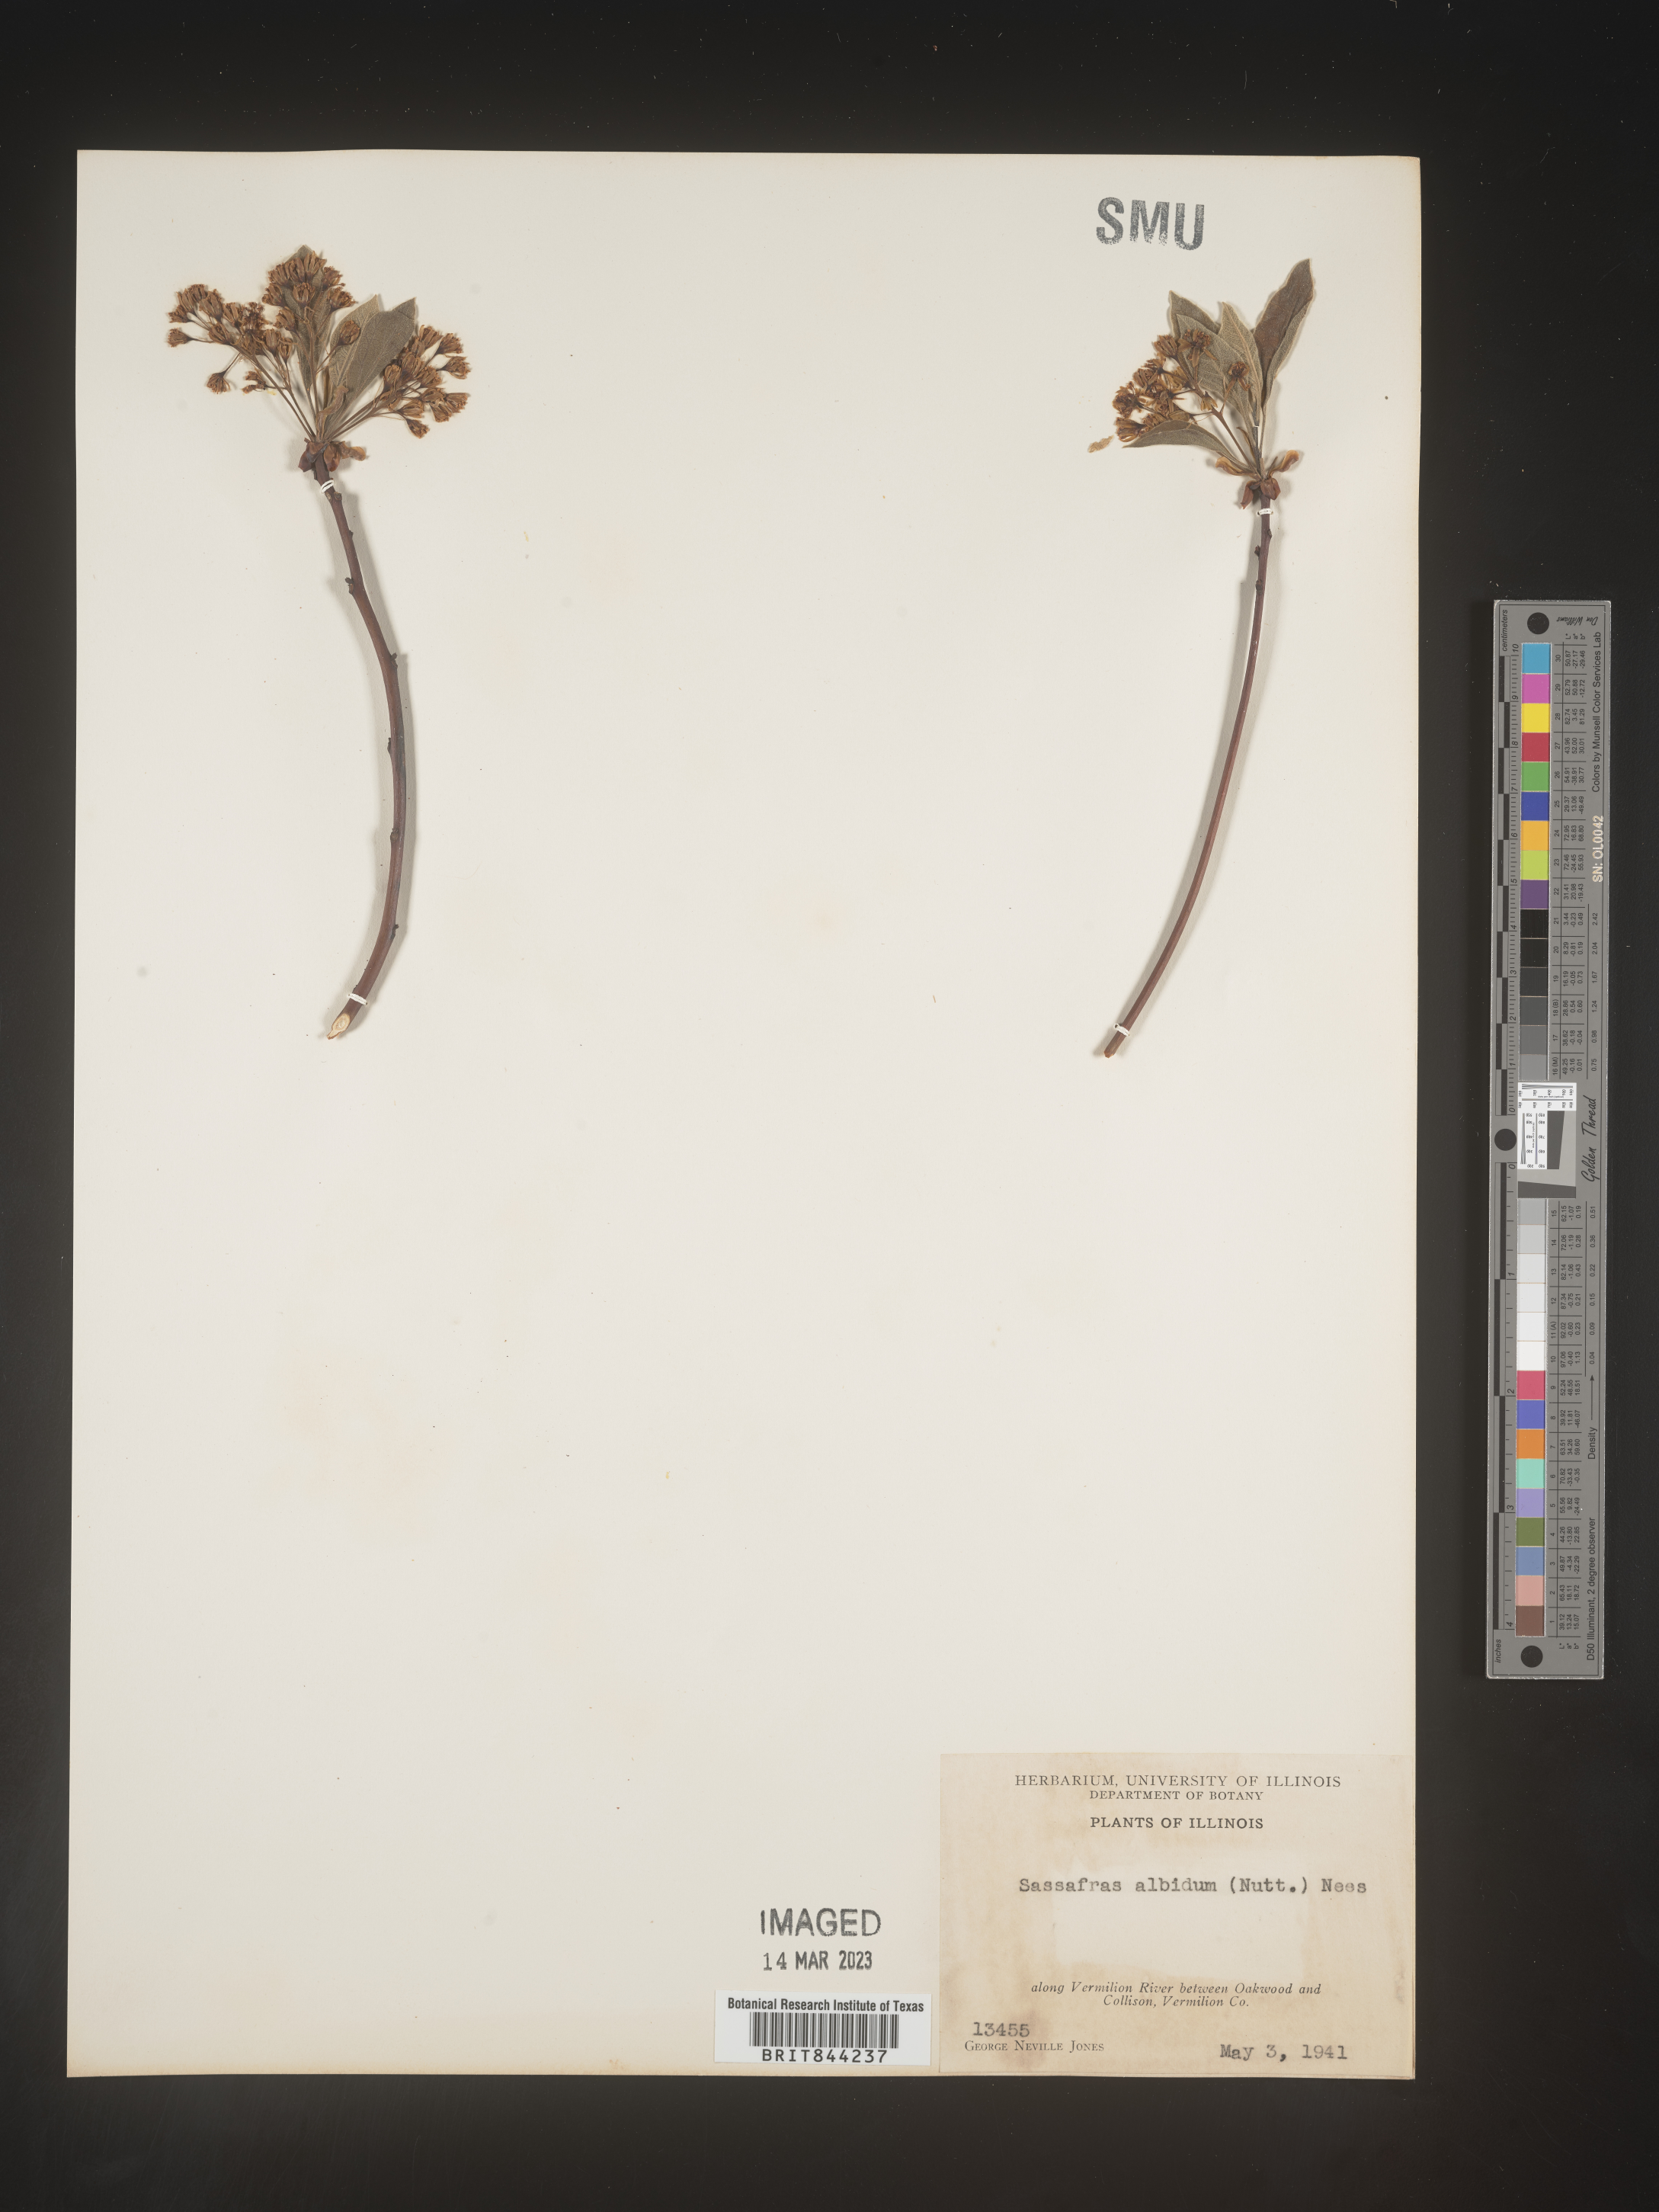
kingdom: Plantae
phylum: Tracheophyta
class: Magnoliopsida
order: Laurales
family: Lauraceae
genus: Sassafras
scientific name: Sassafras albidum
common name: Sassafras
